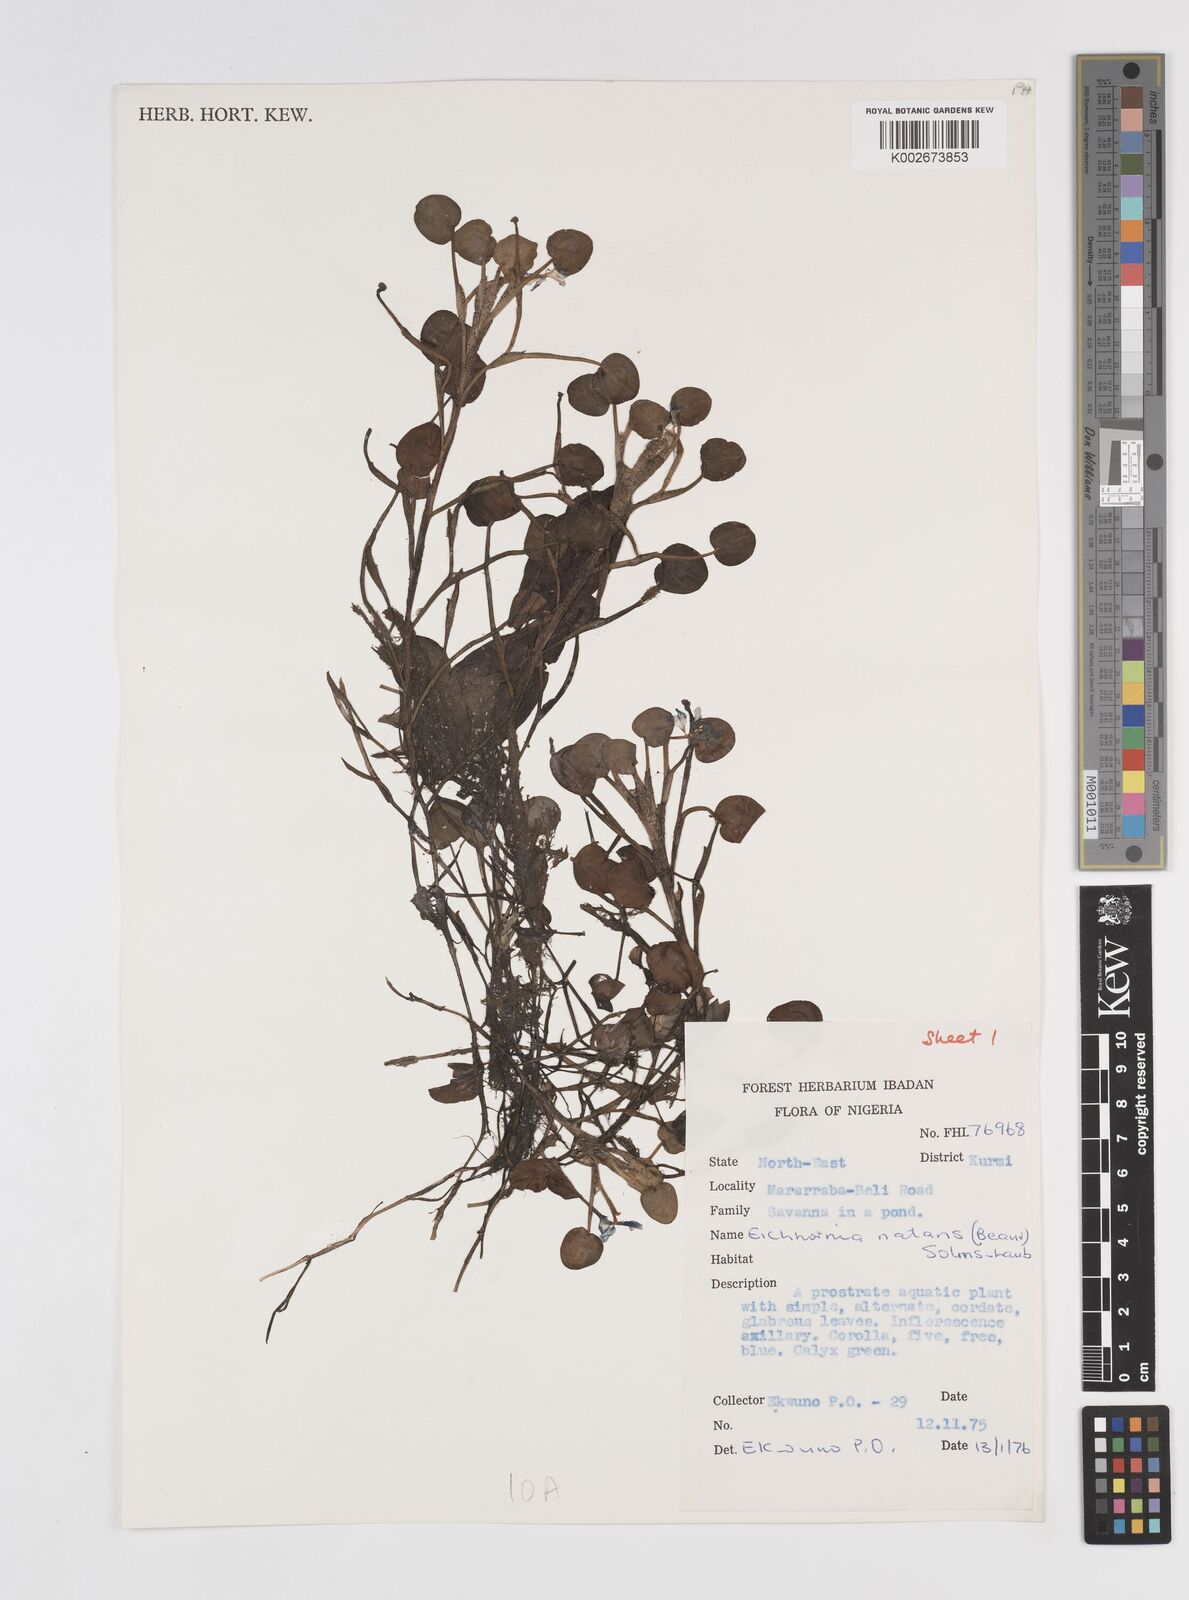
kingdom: Plantae
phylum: Tracheophyta
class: Liliopsida
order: Commelinales
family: Pontederiaceae
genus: Pontederia
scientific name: Pontederia natans
